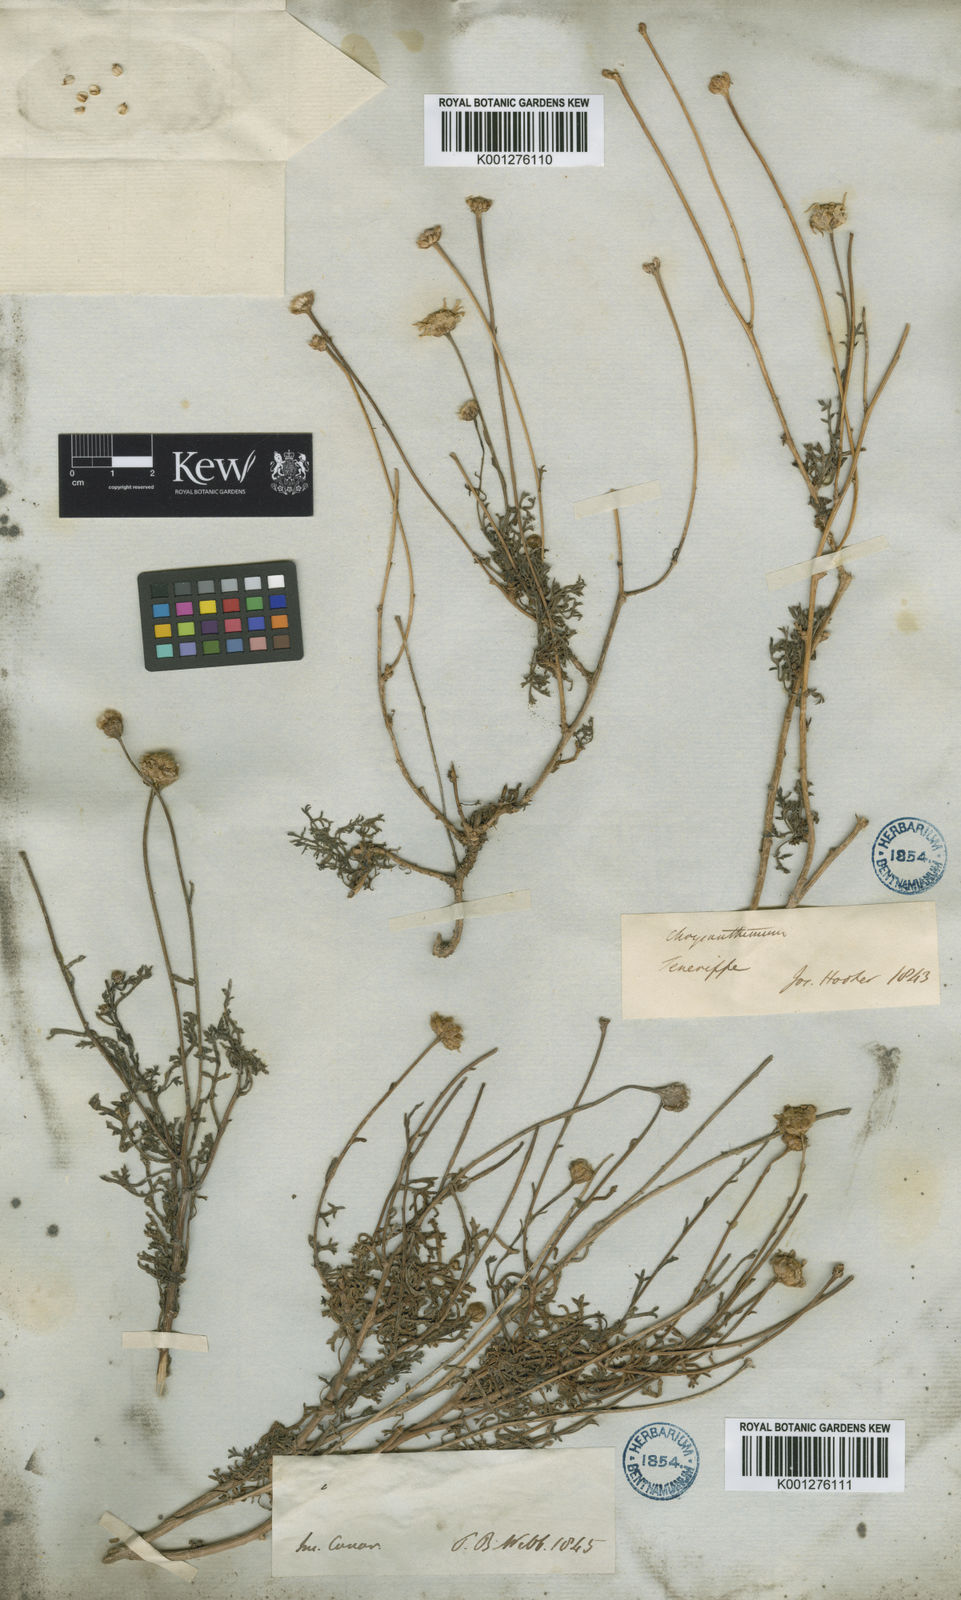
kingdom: Plantae
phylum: Tracheophyta
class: Magnoliopsida
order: Asterales
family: Asteraceae
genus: Argyranthemum
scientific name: Argyranthemum frutescens
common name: Paris daisy
